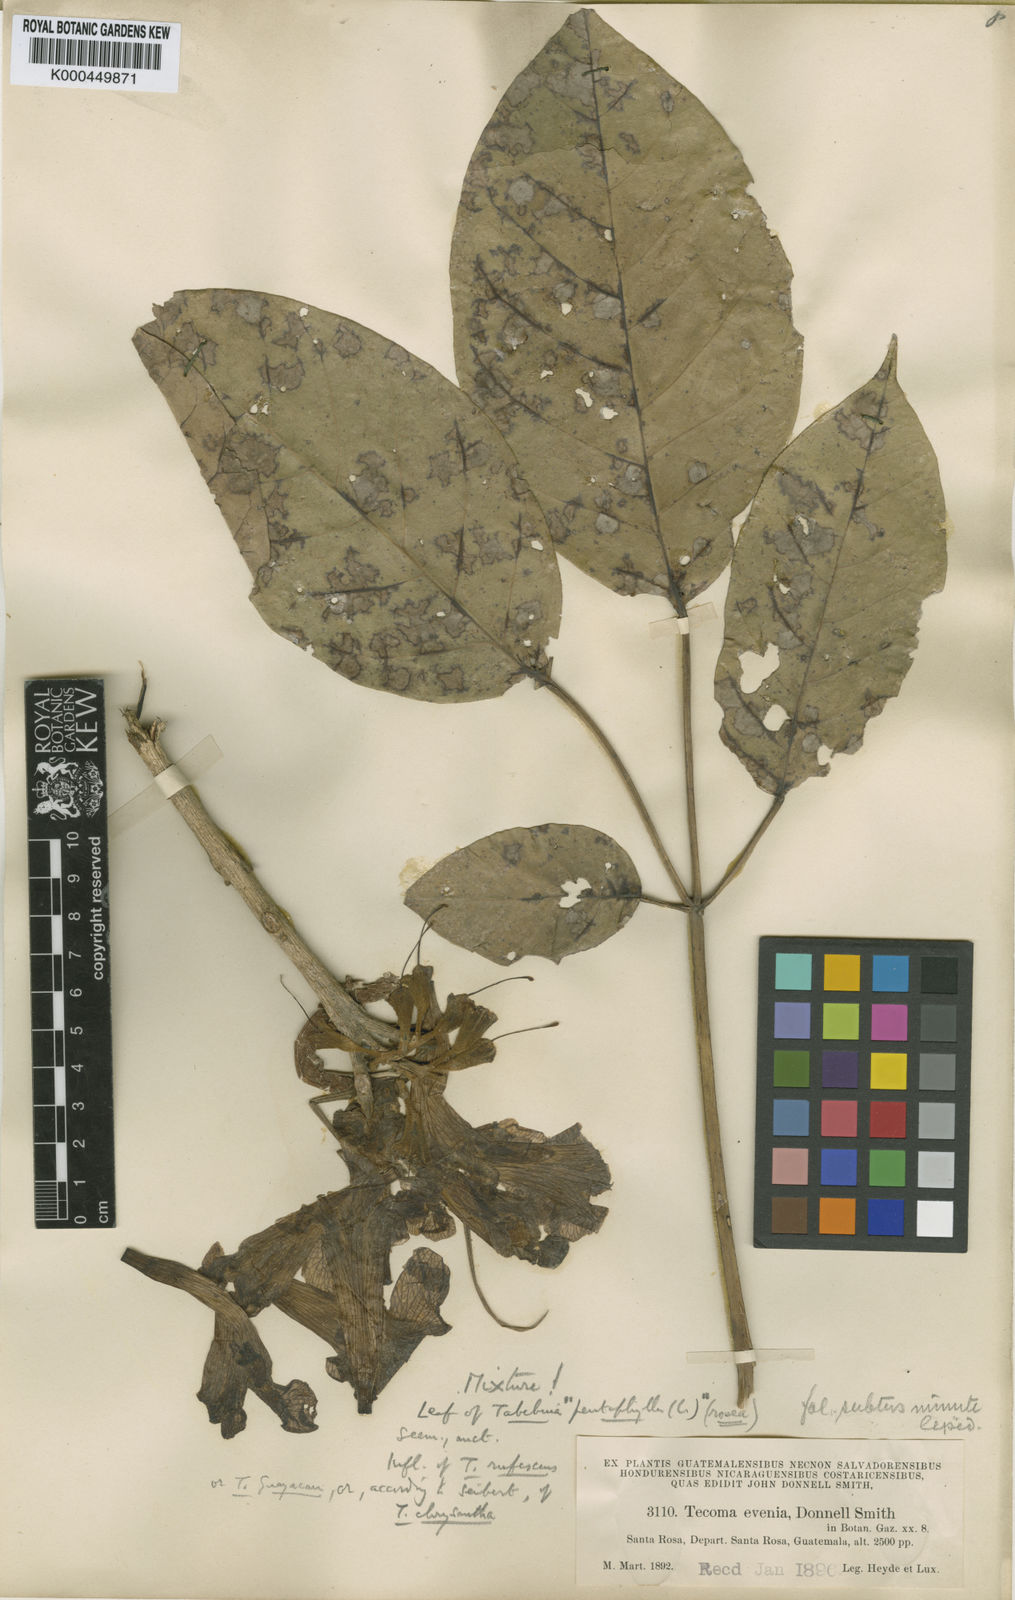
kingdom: Plantae
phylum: Tracheophyta
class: Magnoliopsida
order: Lamiales
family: Bignoniaceae
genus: Handroanthus
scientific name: Handroanthus chrysanthus
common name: Trumpet trees
